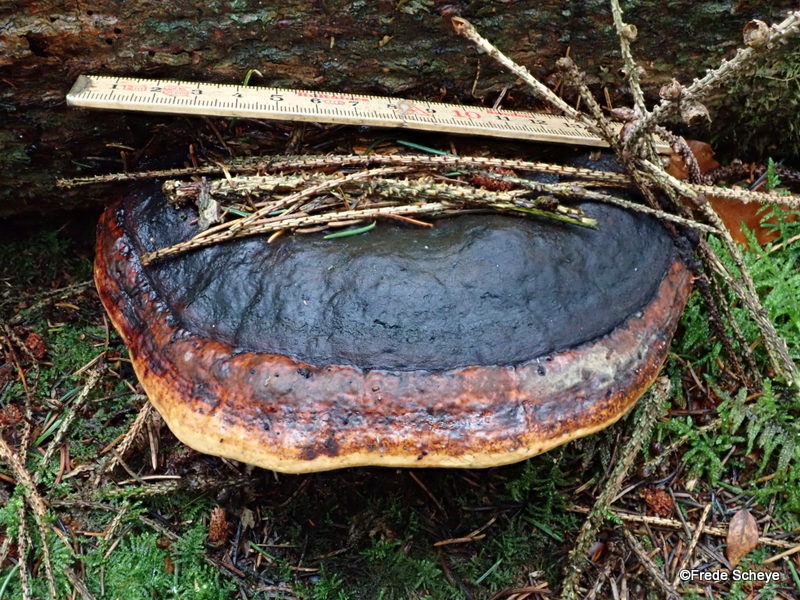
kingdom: Fungi
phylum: Basidiomycota
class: Agaricomycetes
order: Polyporales
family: Fomitopsidaceae
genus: Fomitopsis
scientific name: Fomitopsis pinicola
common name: randbæltet hovporesvamp
